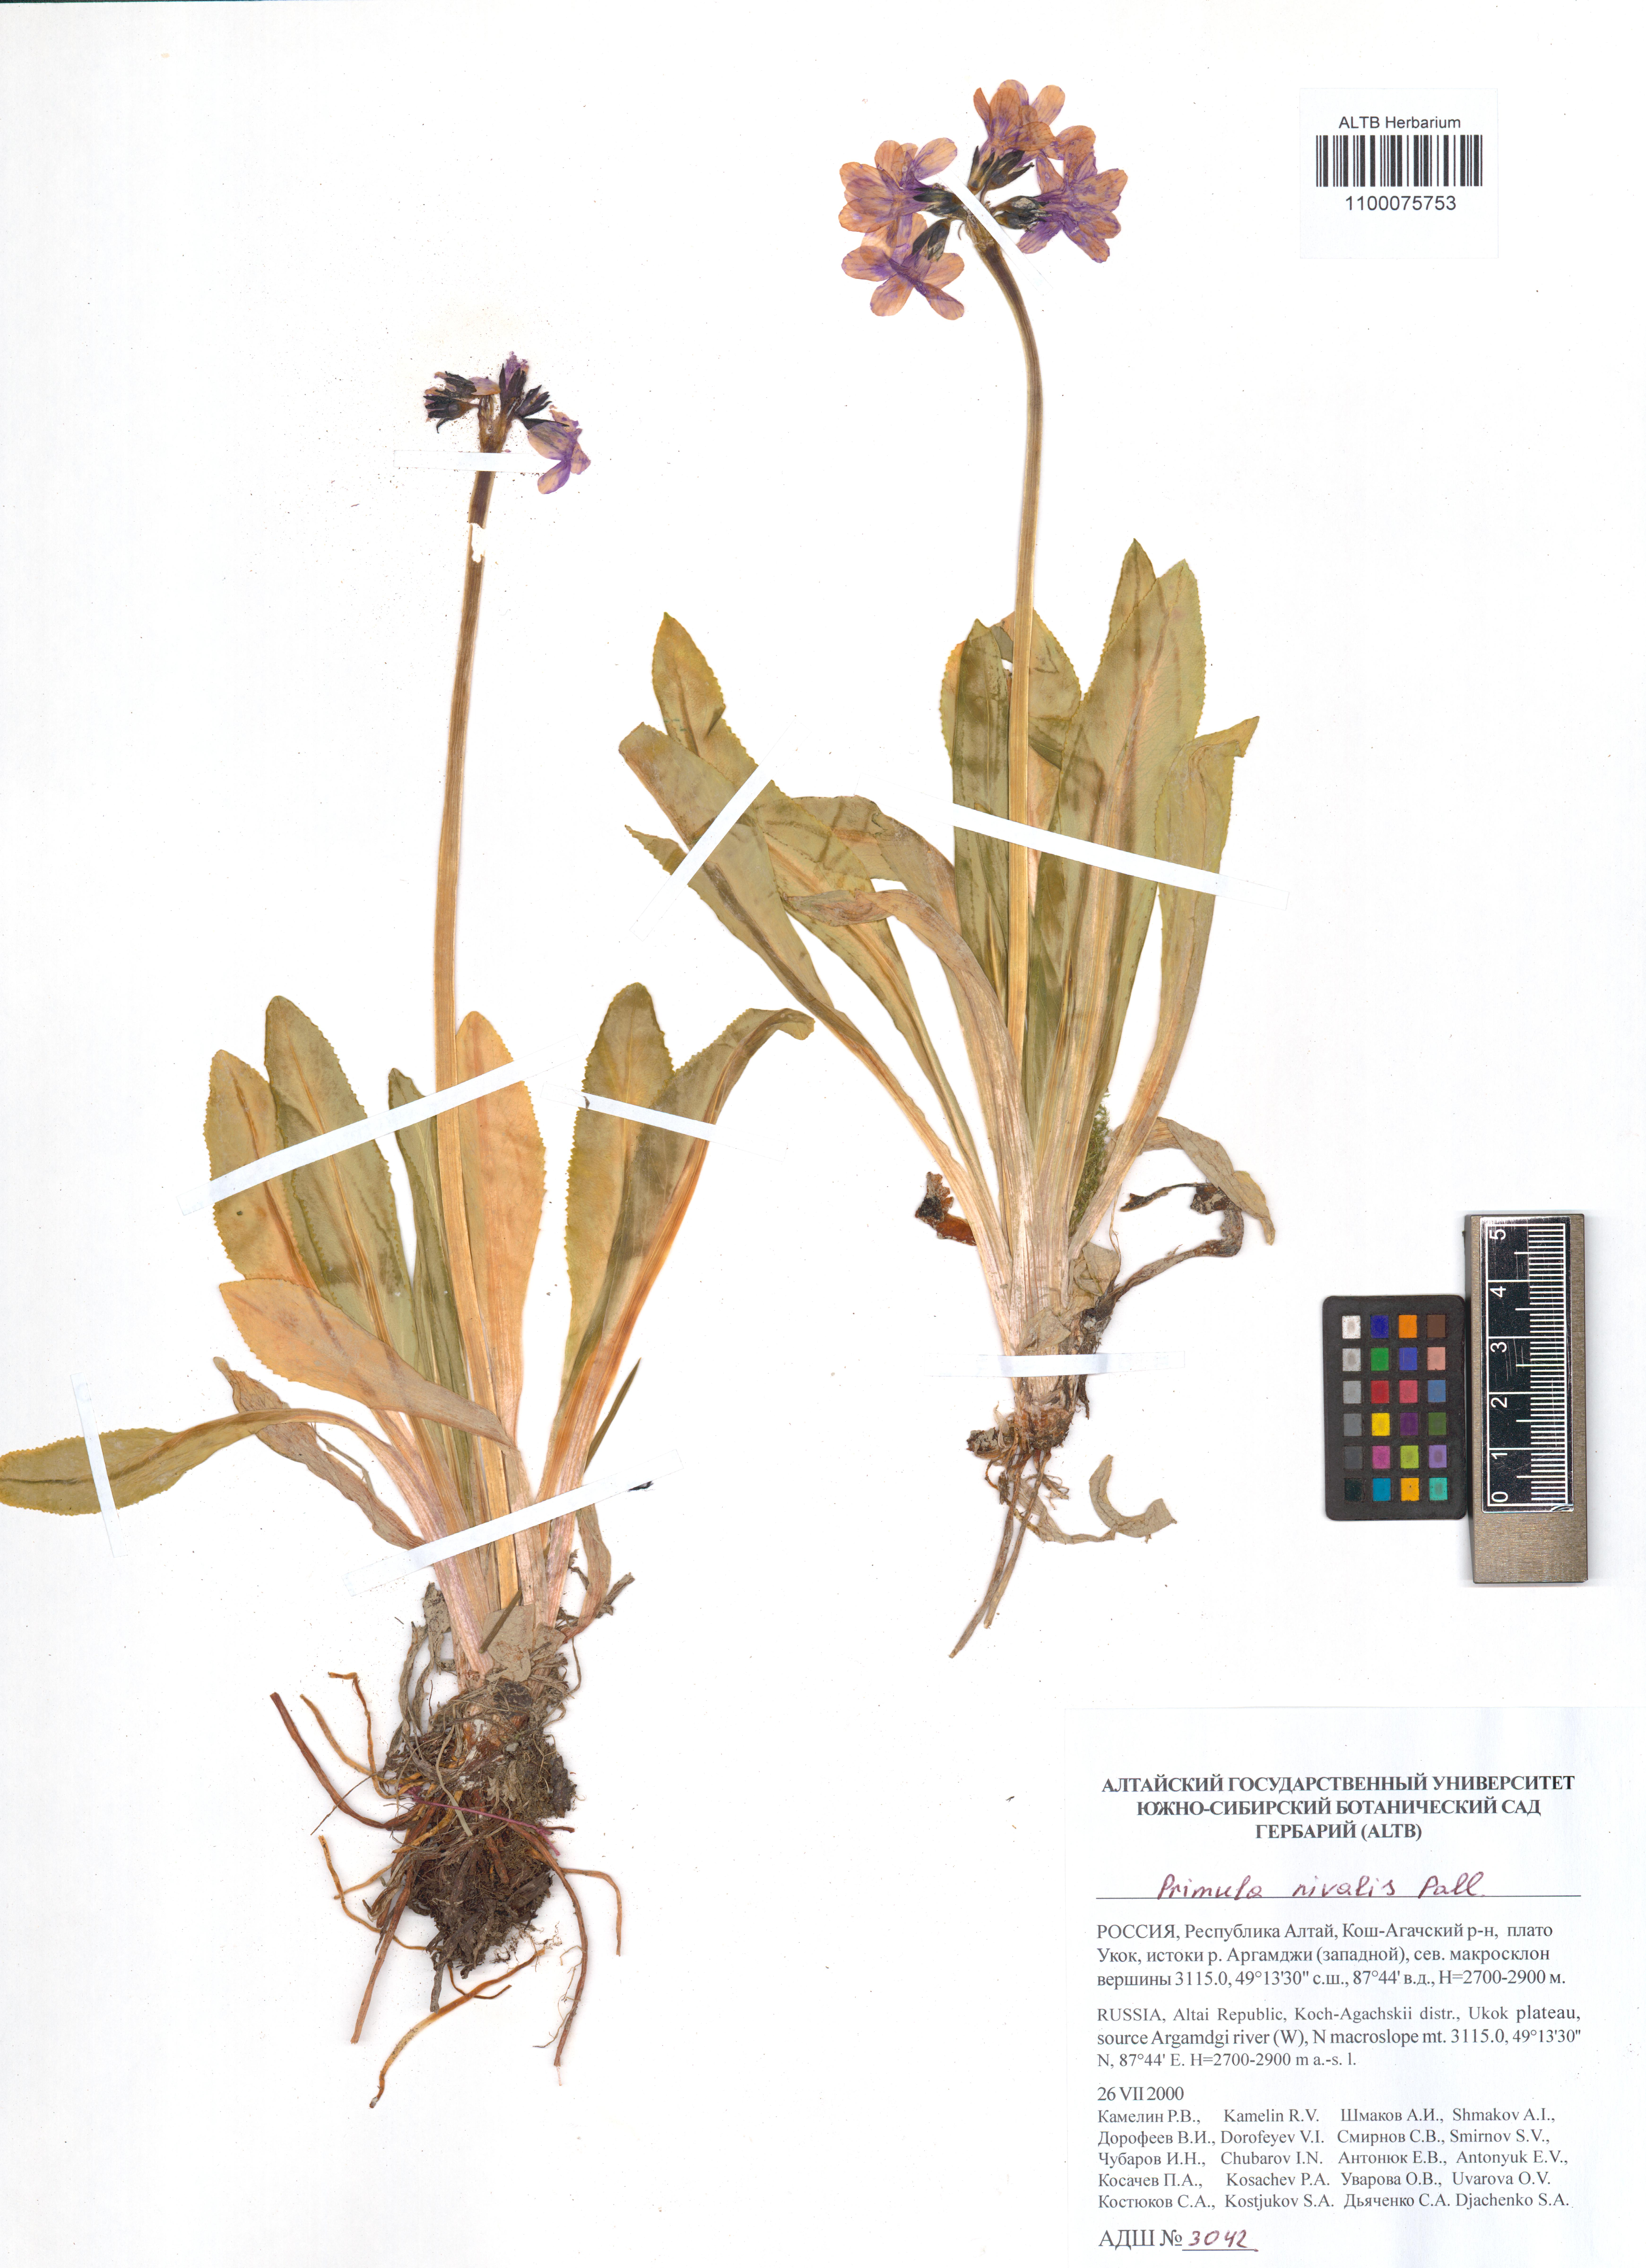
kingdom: Plantae
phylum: Tracheophyta
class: Magnoliopsida
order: Ericales
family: Primulaceae
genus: Primula
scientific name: Primula nivalis
